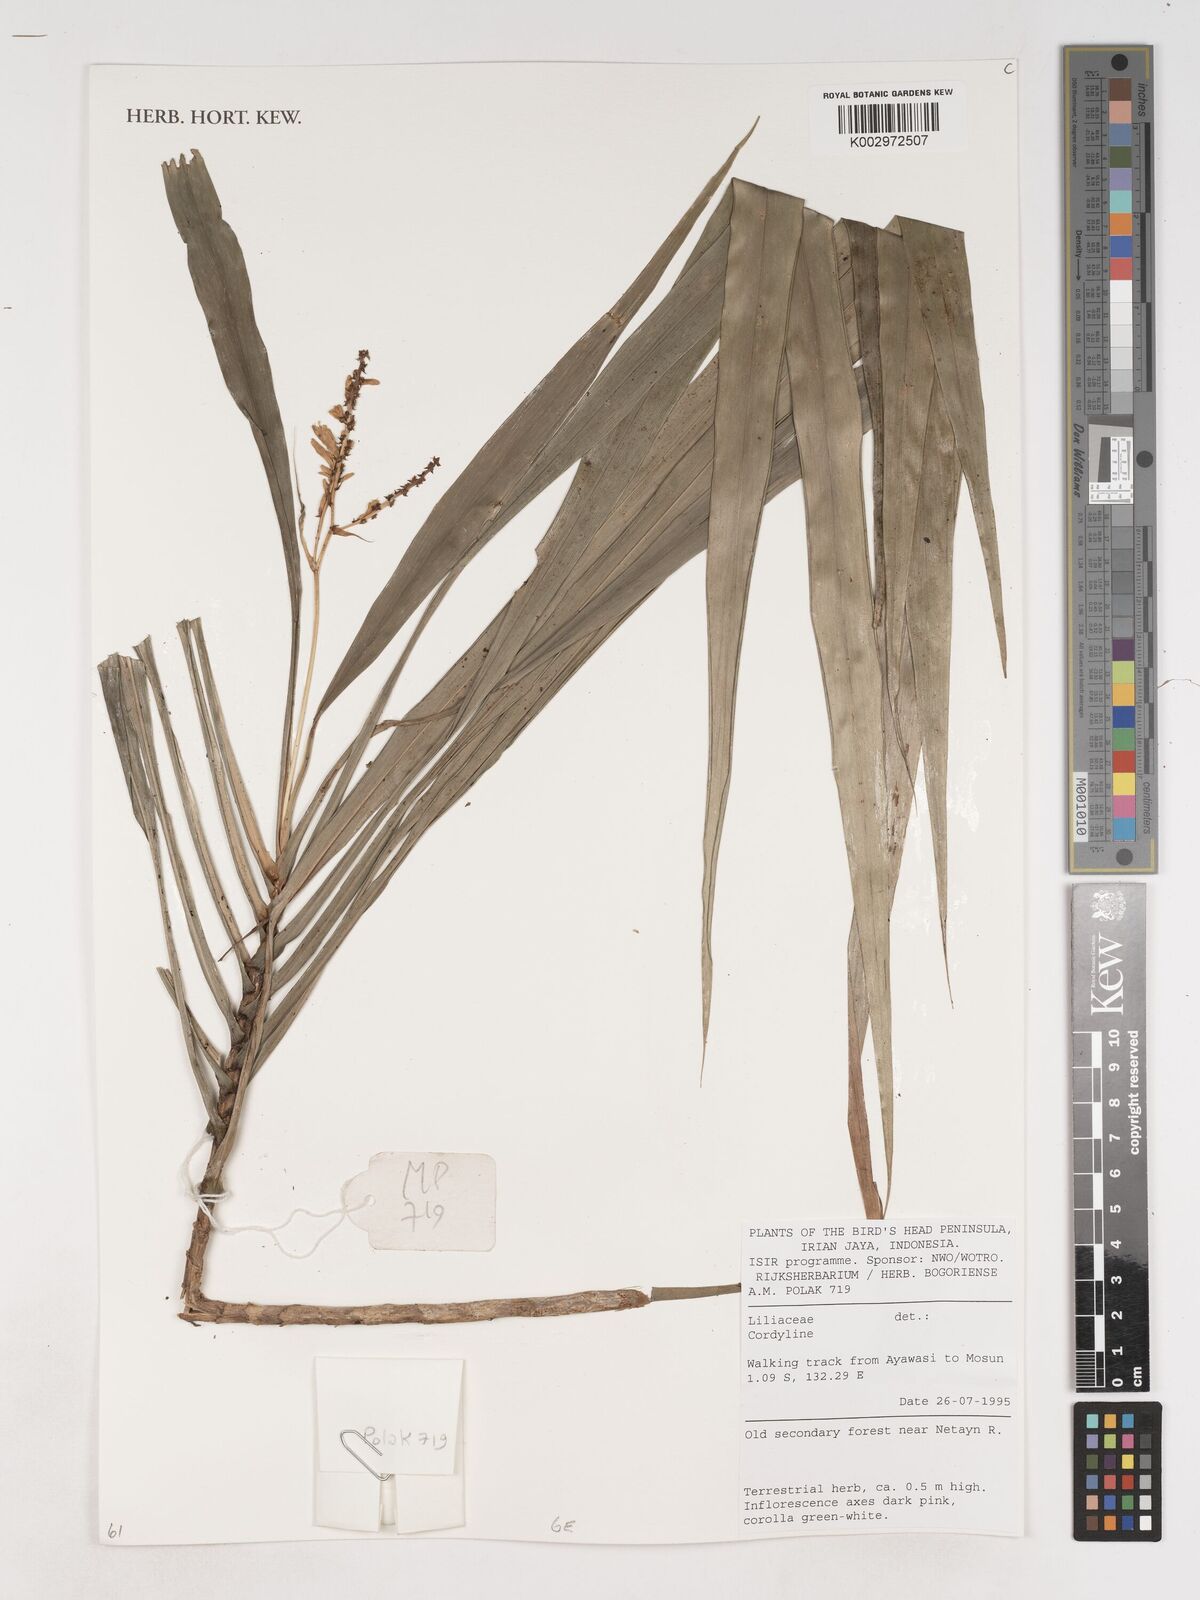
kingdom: Plantae
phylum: Tracheophyta
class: Liliopsida
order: Asparagales
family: Asparagaceae
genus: Cordyline
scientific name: Cordyline
